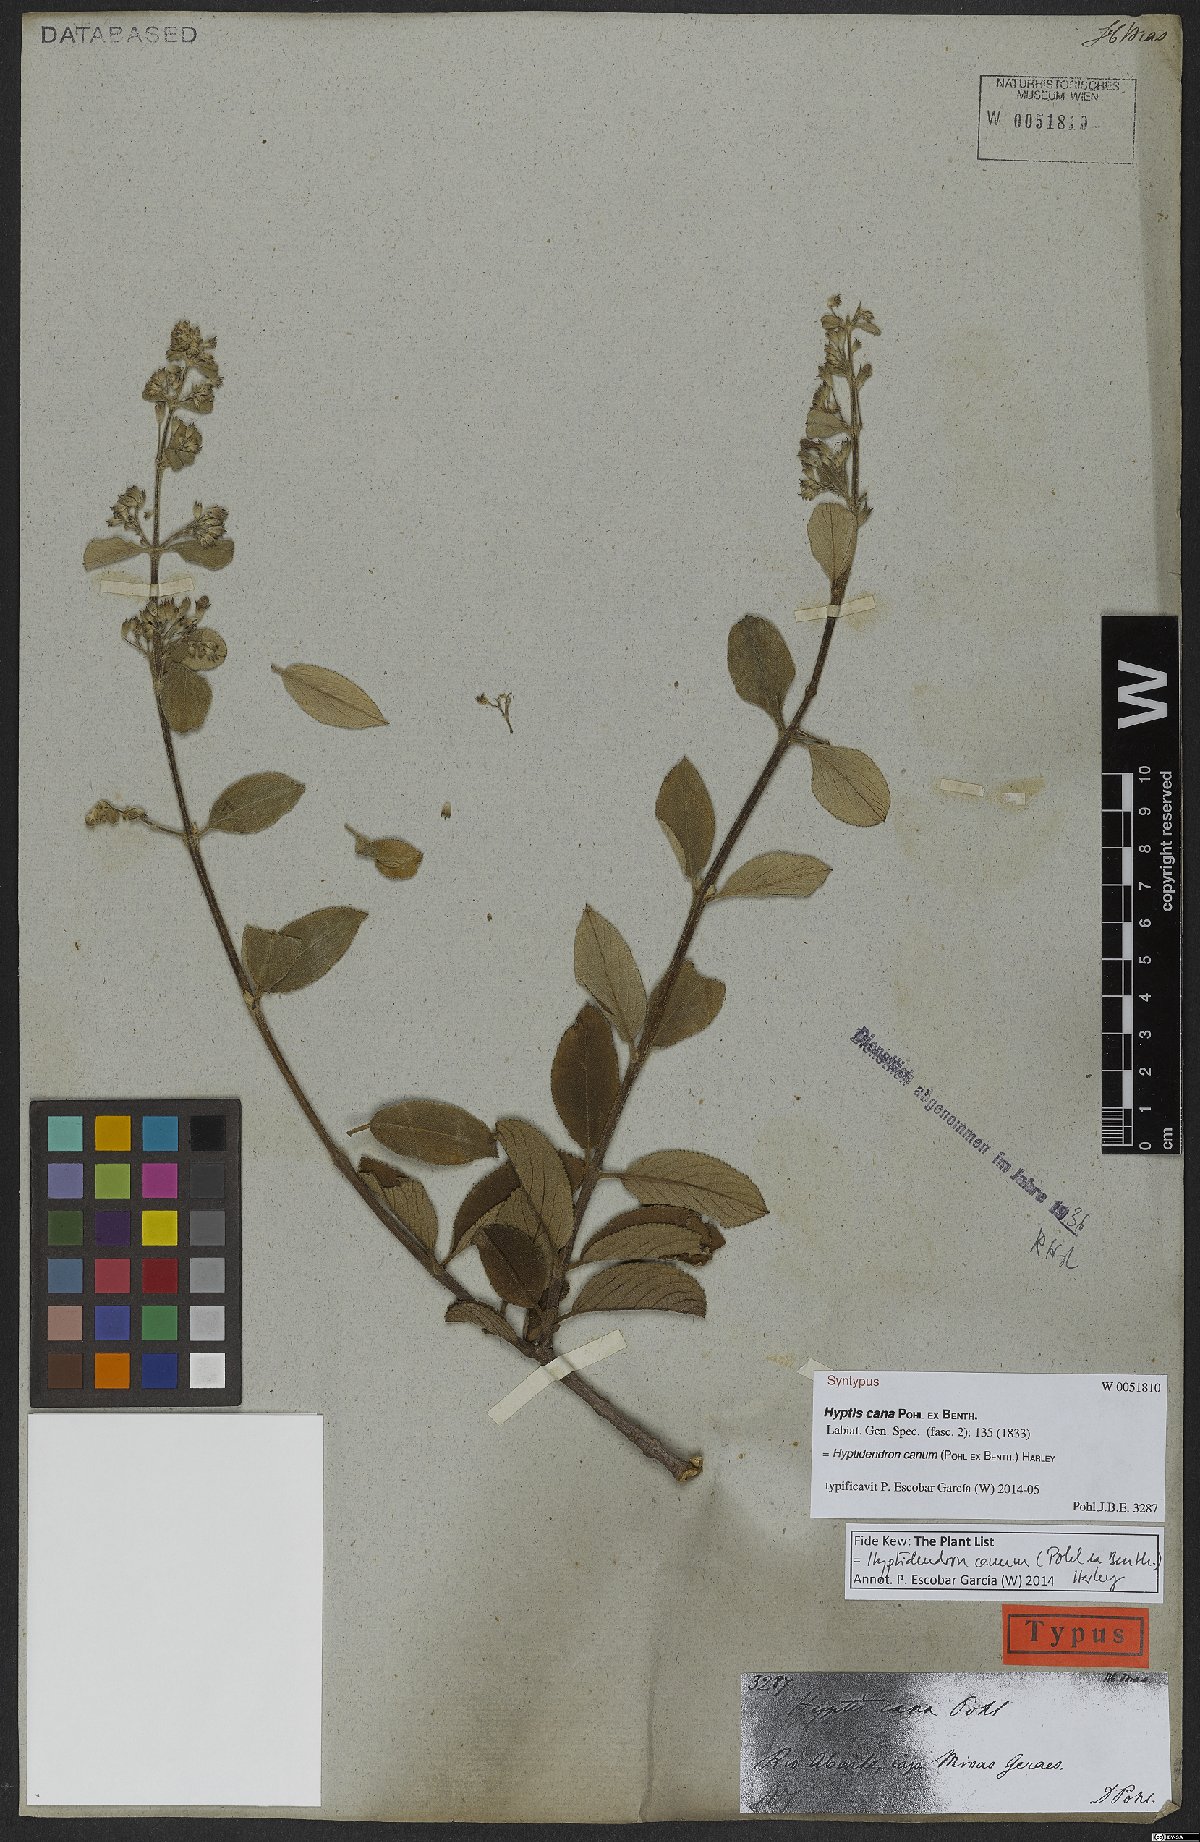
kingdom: Plantae
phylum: Tracheophyta
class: Magnoliopsida
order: Lamiales
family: Lamiaceae
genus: Hyptidendron
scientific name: Hyptidendron canum
